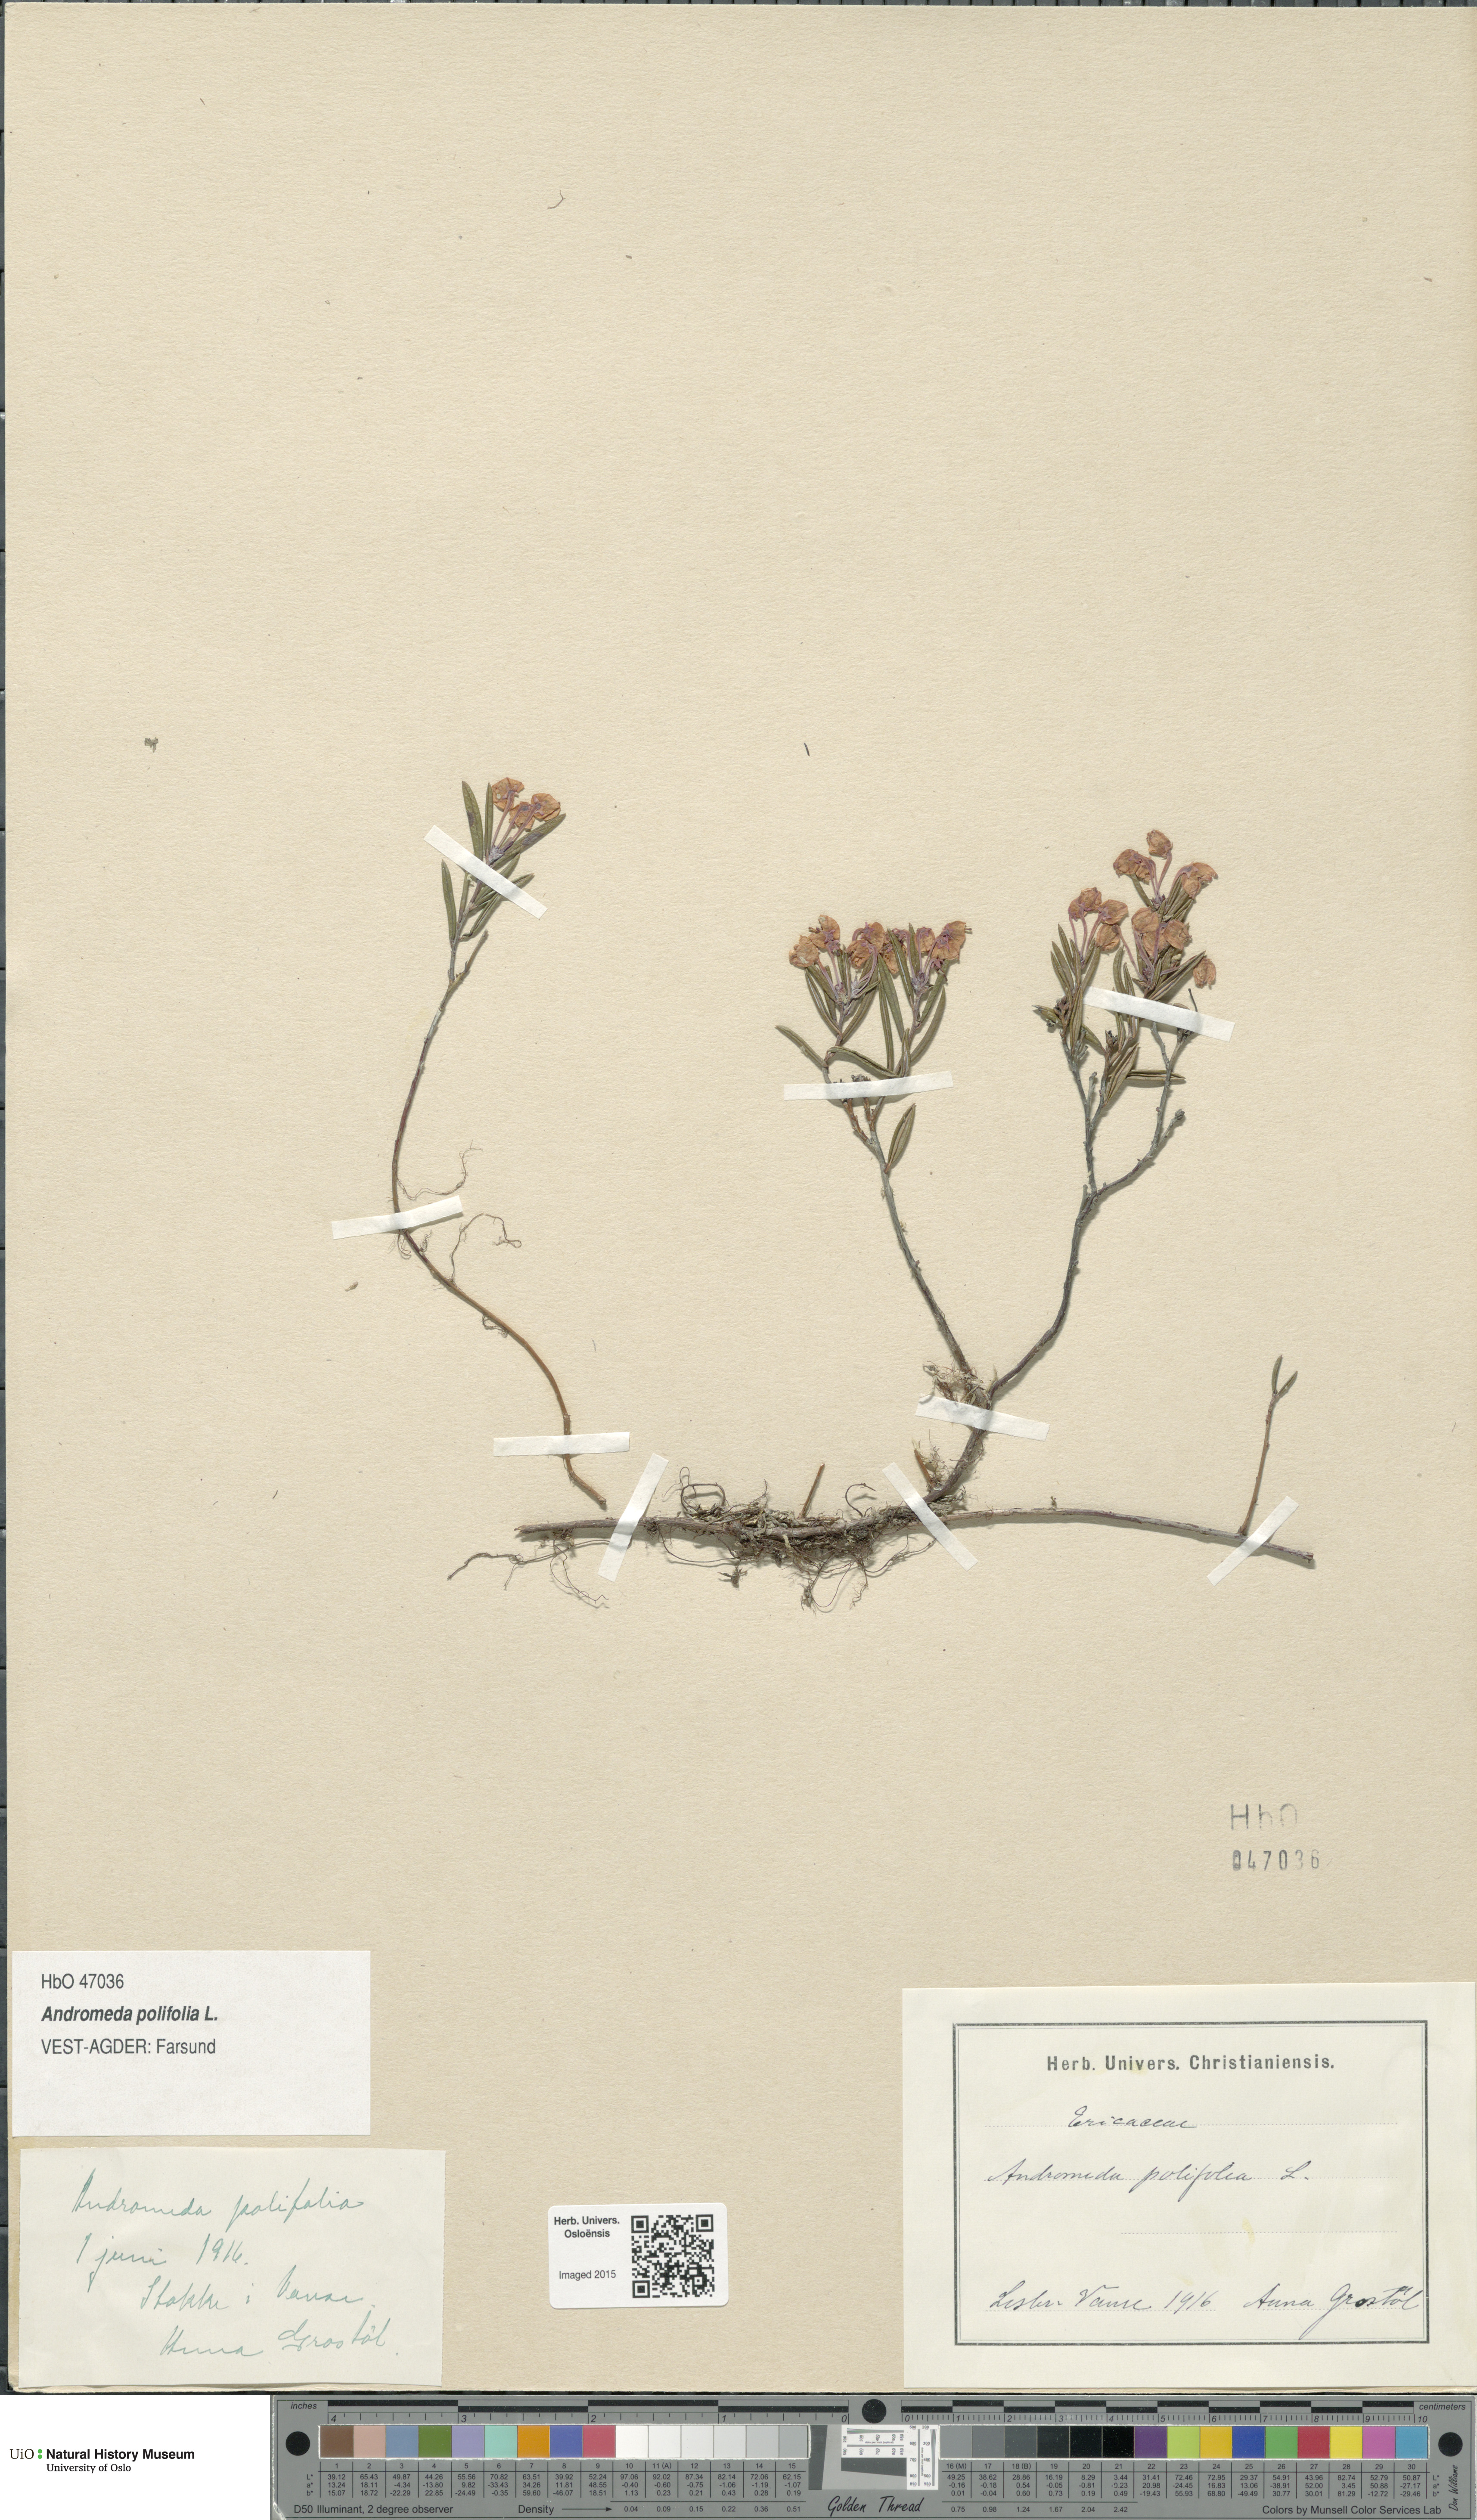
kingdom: Plantae
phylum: Tracheophyta
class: Magnoliopsida
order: Ericales
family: Ericaceae
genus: Andromeda
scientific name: Andromeda polifolia
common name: Bog-rosemary
